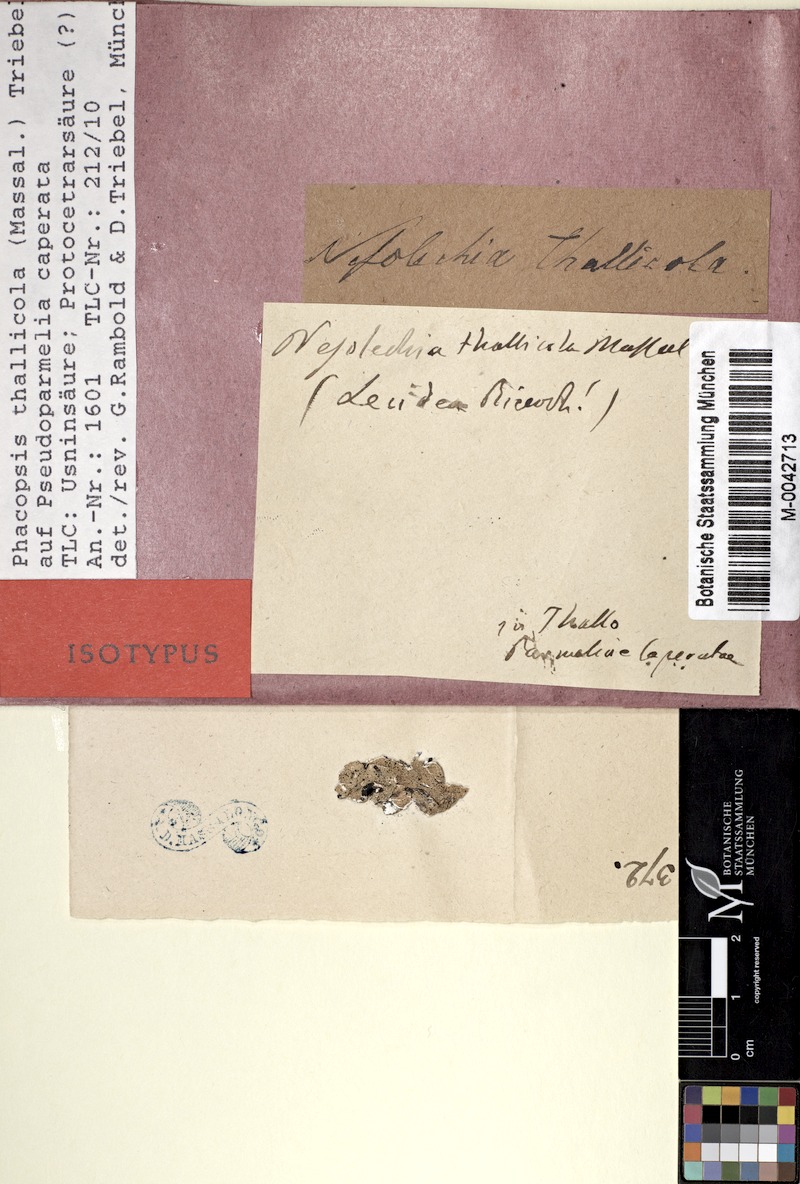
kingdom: Fungi
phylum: Ascomycota
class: Lecanoromycetes
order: Lecanorales
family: Parmeliaceae
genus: Phacopsis
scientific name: Phacopsis thallicola
